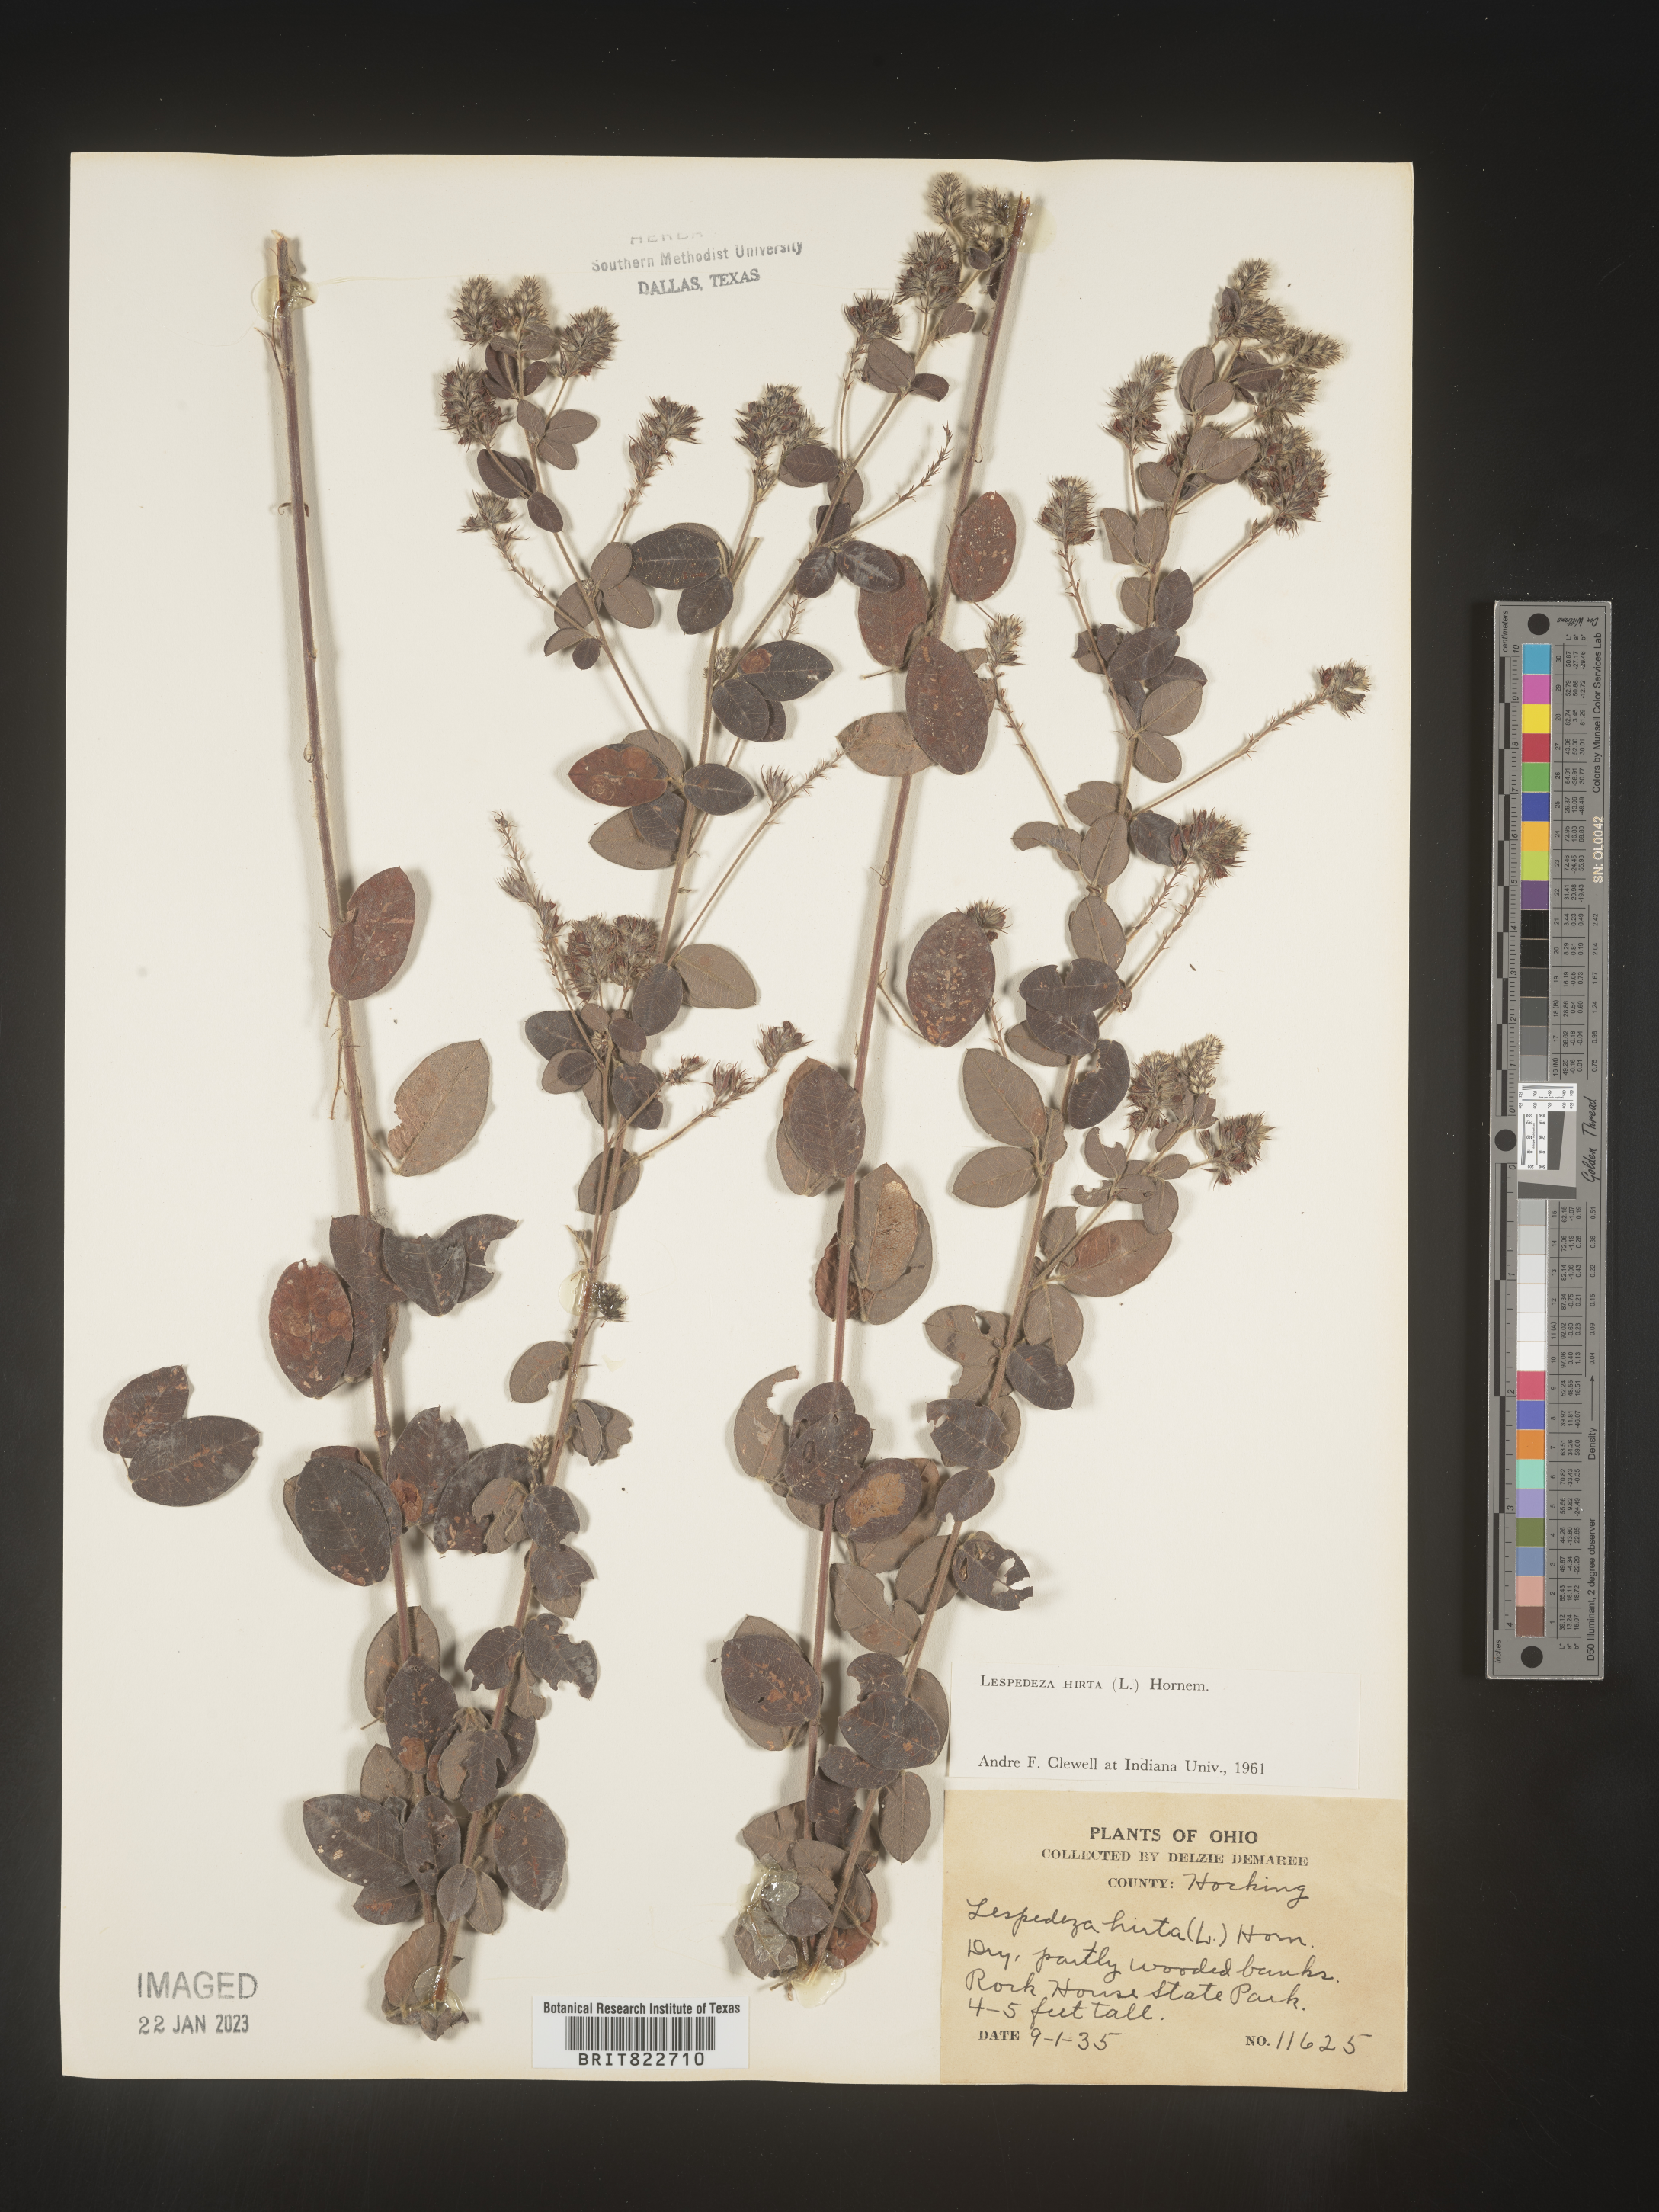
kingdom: Plantae
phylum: Tracheophyta
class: Magnoliopsida
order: Fabales
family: Fabaceae
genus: Lespedeza
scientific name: Lespedeza hirta
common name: Hairy lespedeza
